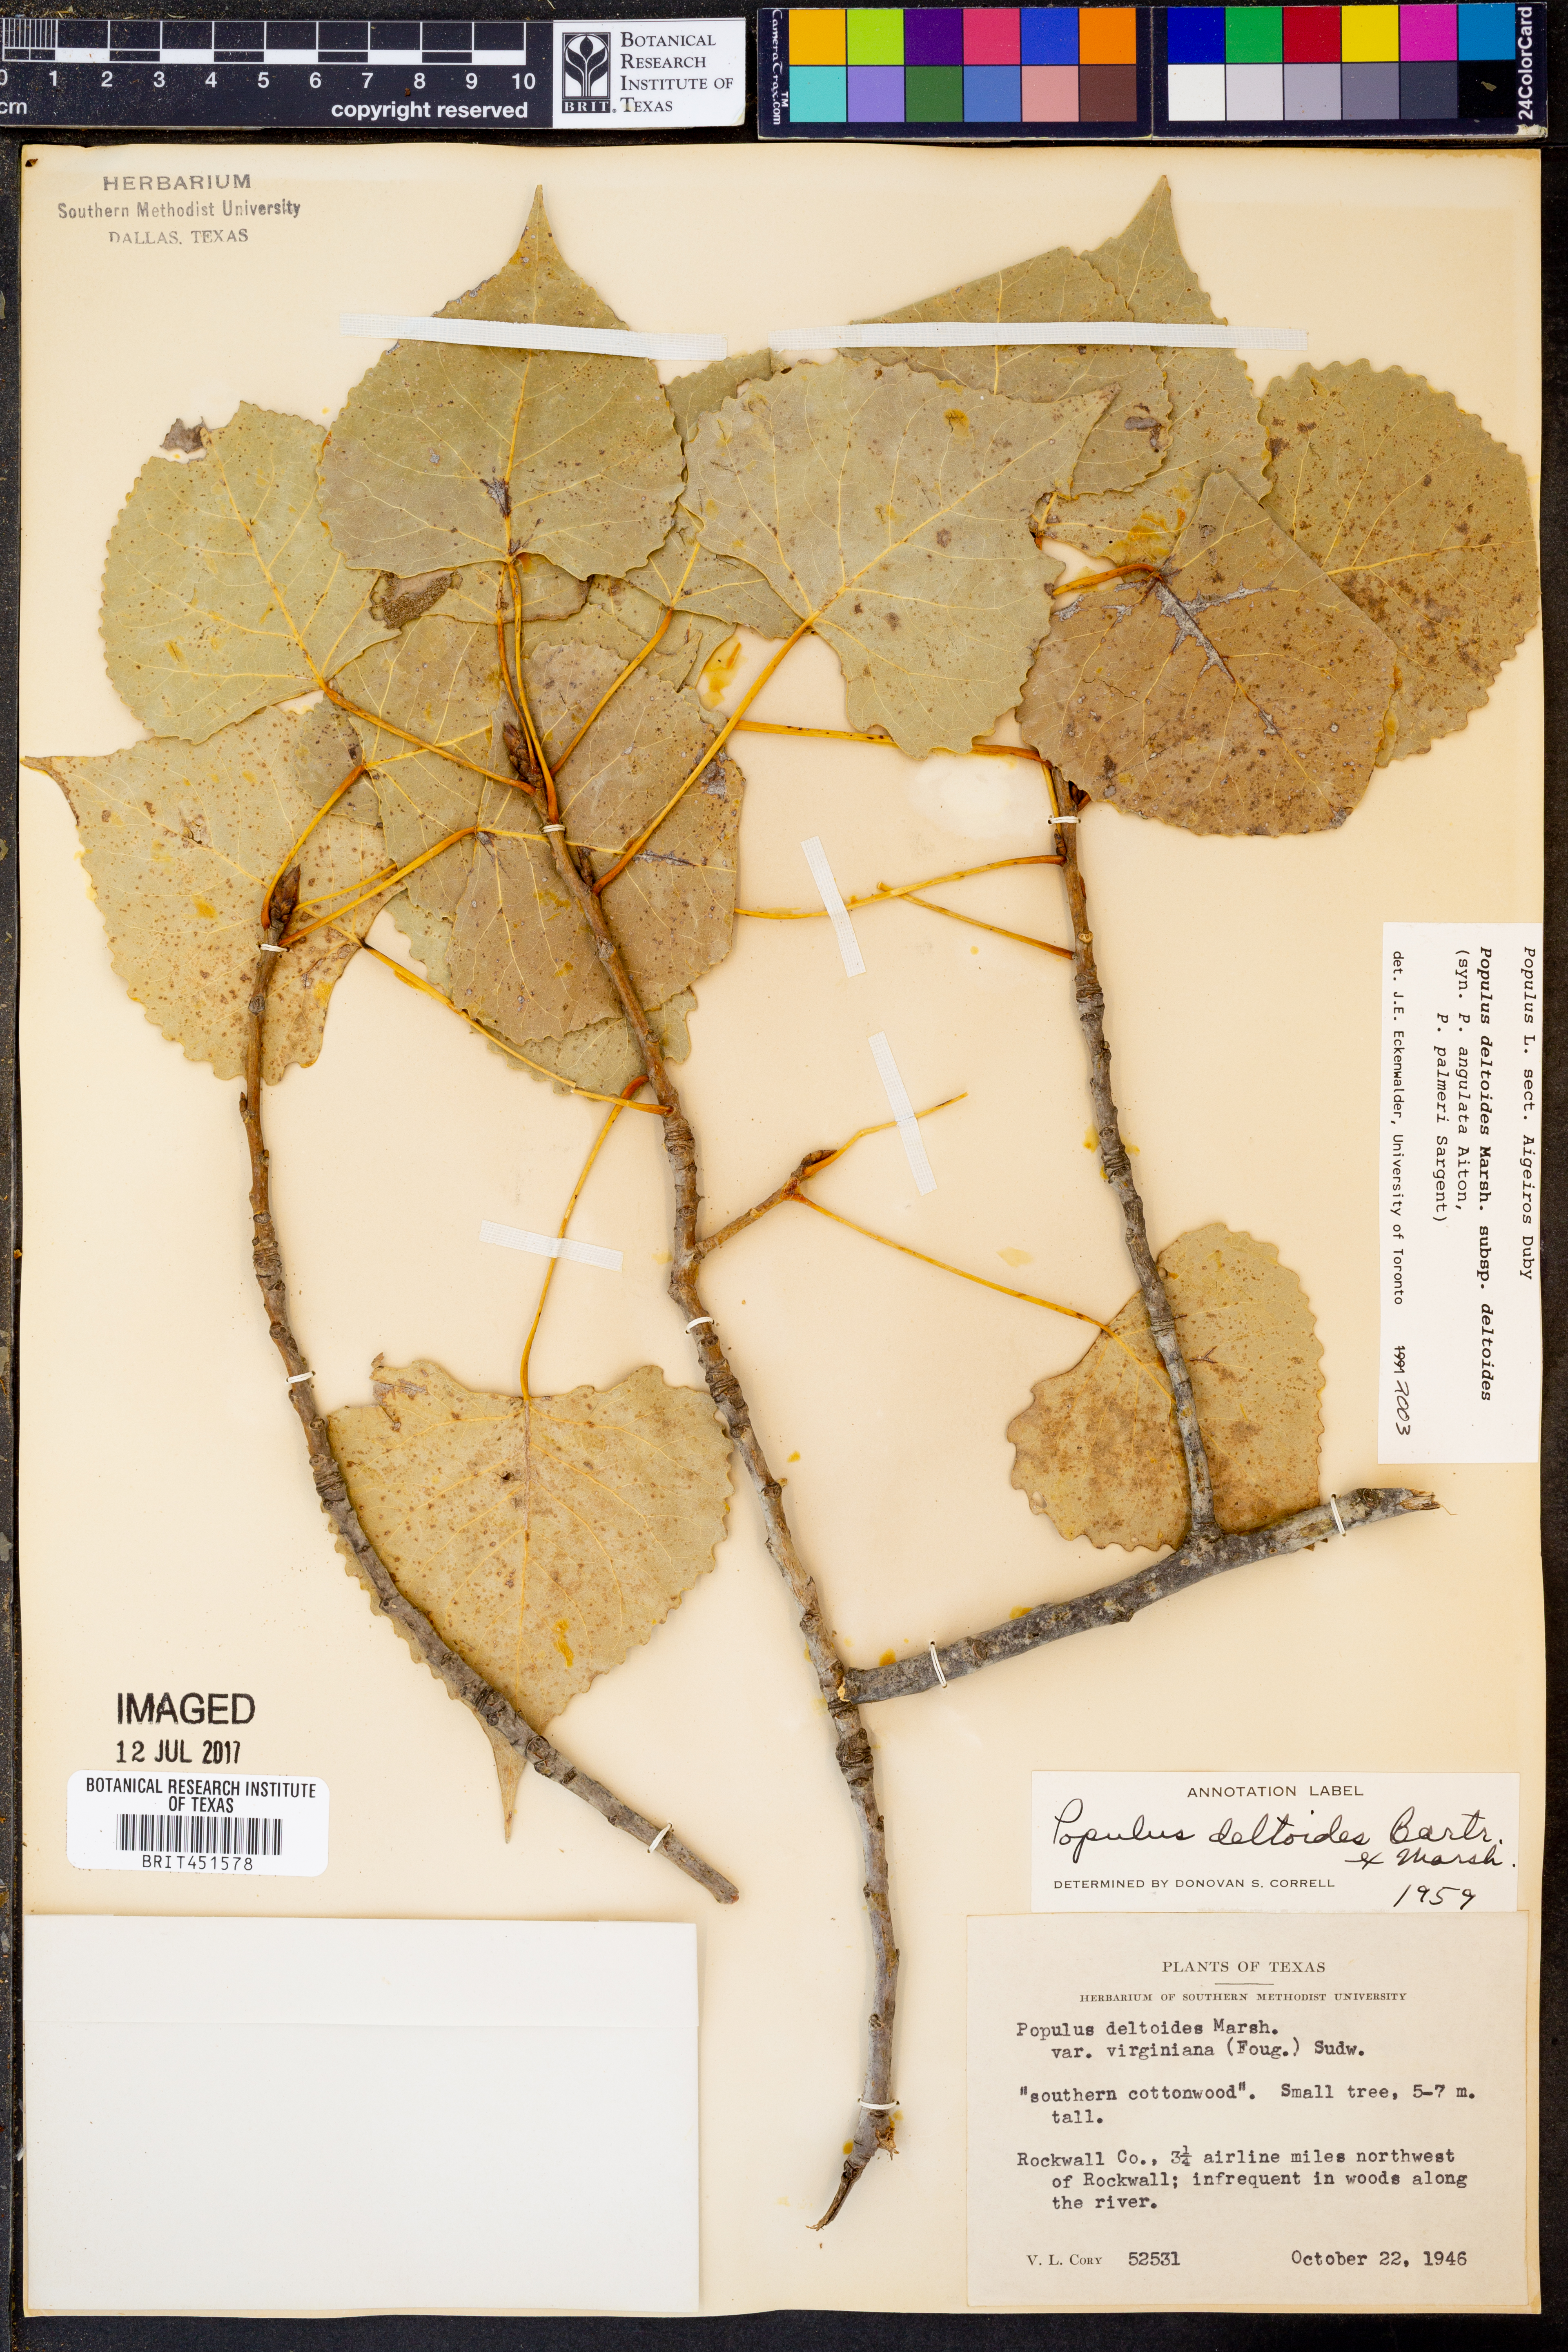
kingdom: Plantae
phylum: Tracheophyta
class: Magnoliopsida
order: Malpighiales
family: Salicaceae
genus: Populus
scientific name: Populus deltoides
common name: Eastern cottonwood
